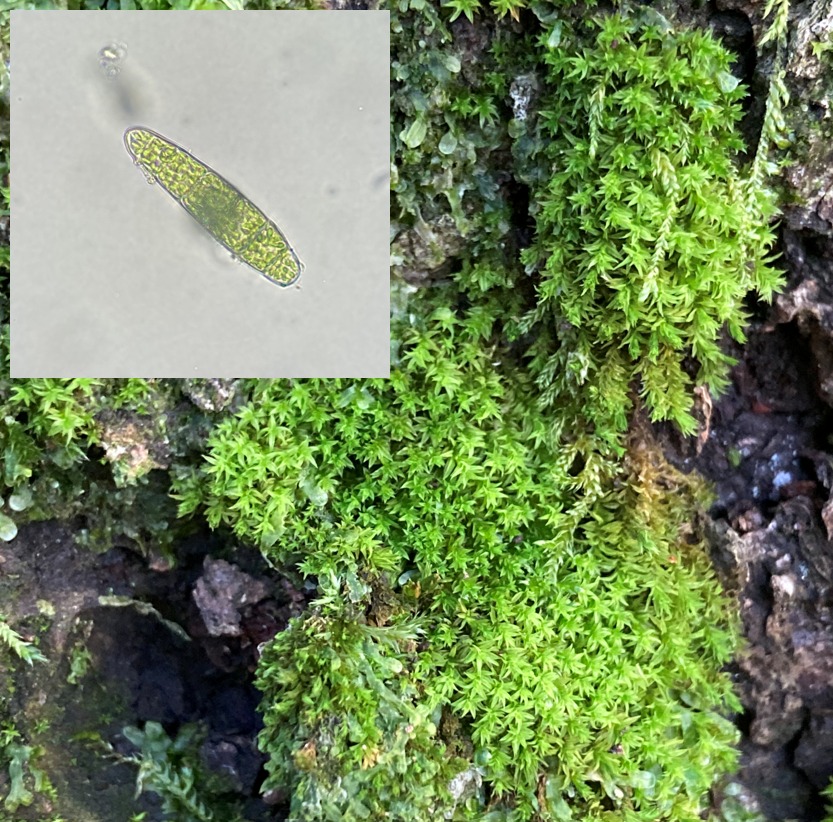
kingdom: Plantae
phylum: Bryophyta
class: Bryopsida
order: Orthotrichales
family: Orthotrichaceae
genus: Zygodon
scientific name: Zygodon conoideus
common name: Tand-køllemos
